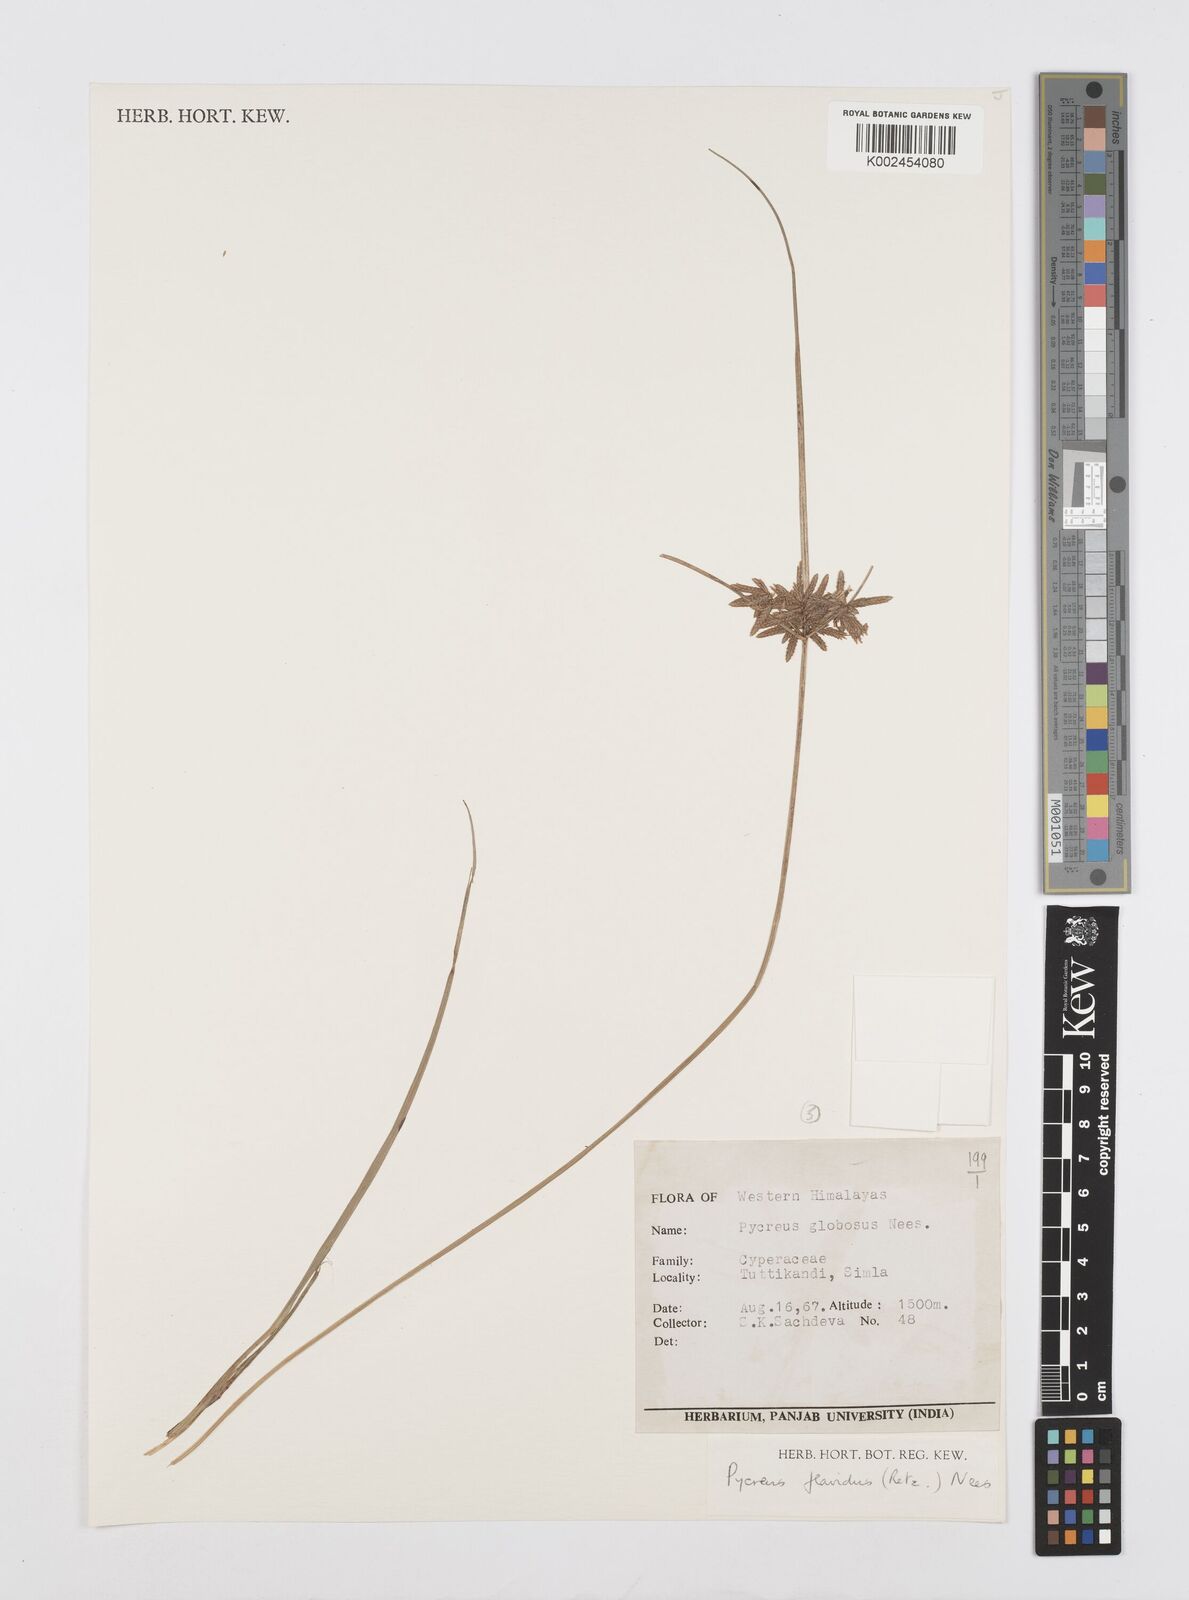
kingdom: Plantae
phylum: Tracheophyta
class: Liliopsida
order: Poales
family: Cyperaceae
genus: Cyperus
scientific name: Cyperus flavidus
